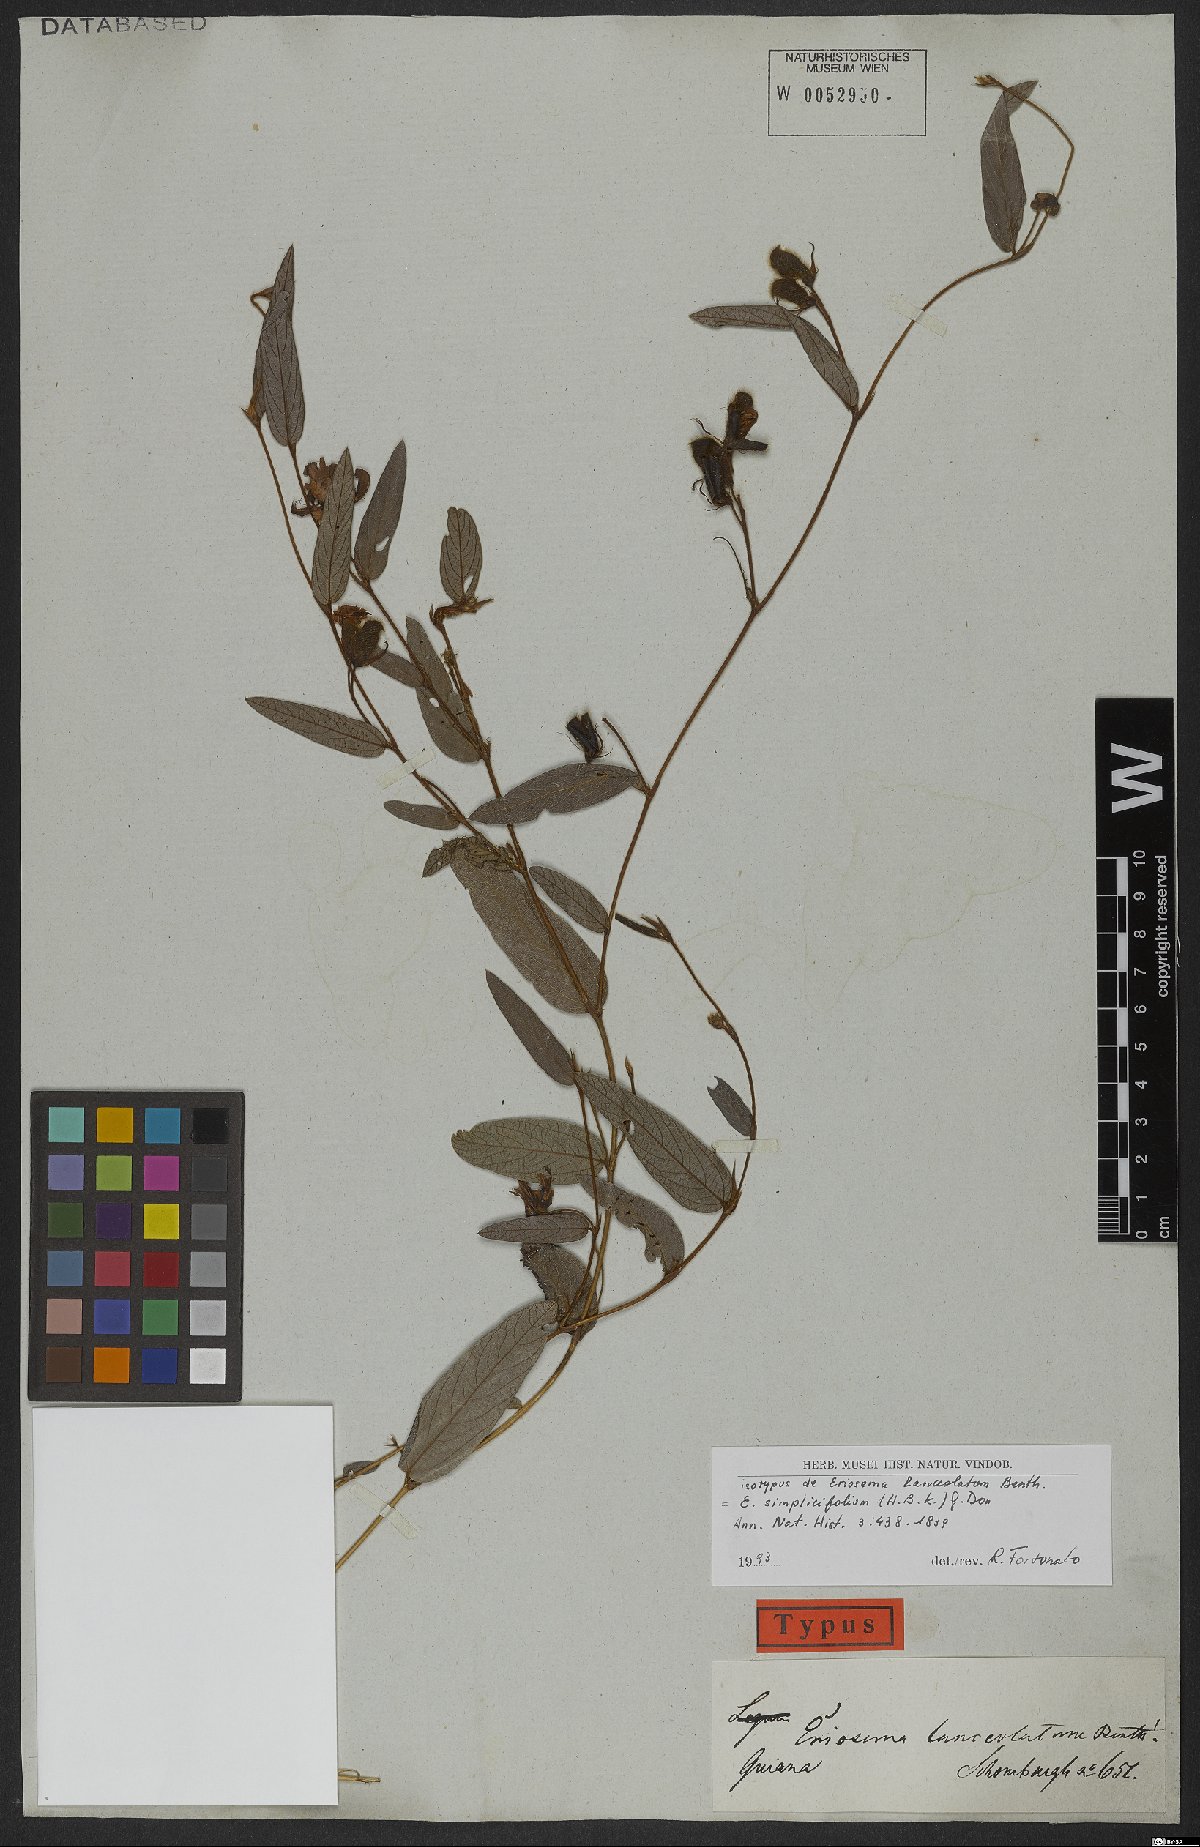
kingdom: Plantae
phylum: Tracheophyta
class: Magnoliopsida
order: Fabales
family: Fabaceae
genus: Eriosema
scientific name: Eriosema simplicifolium
